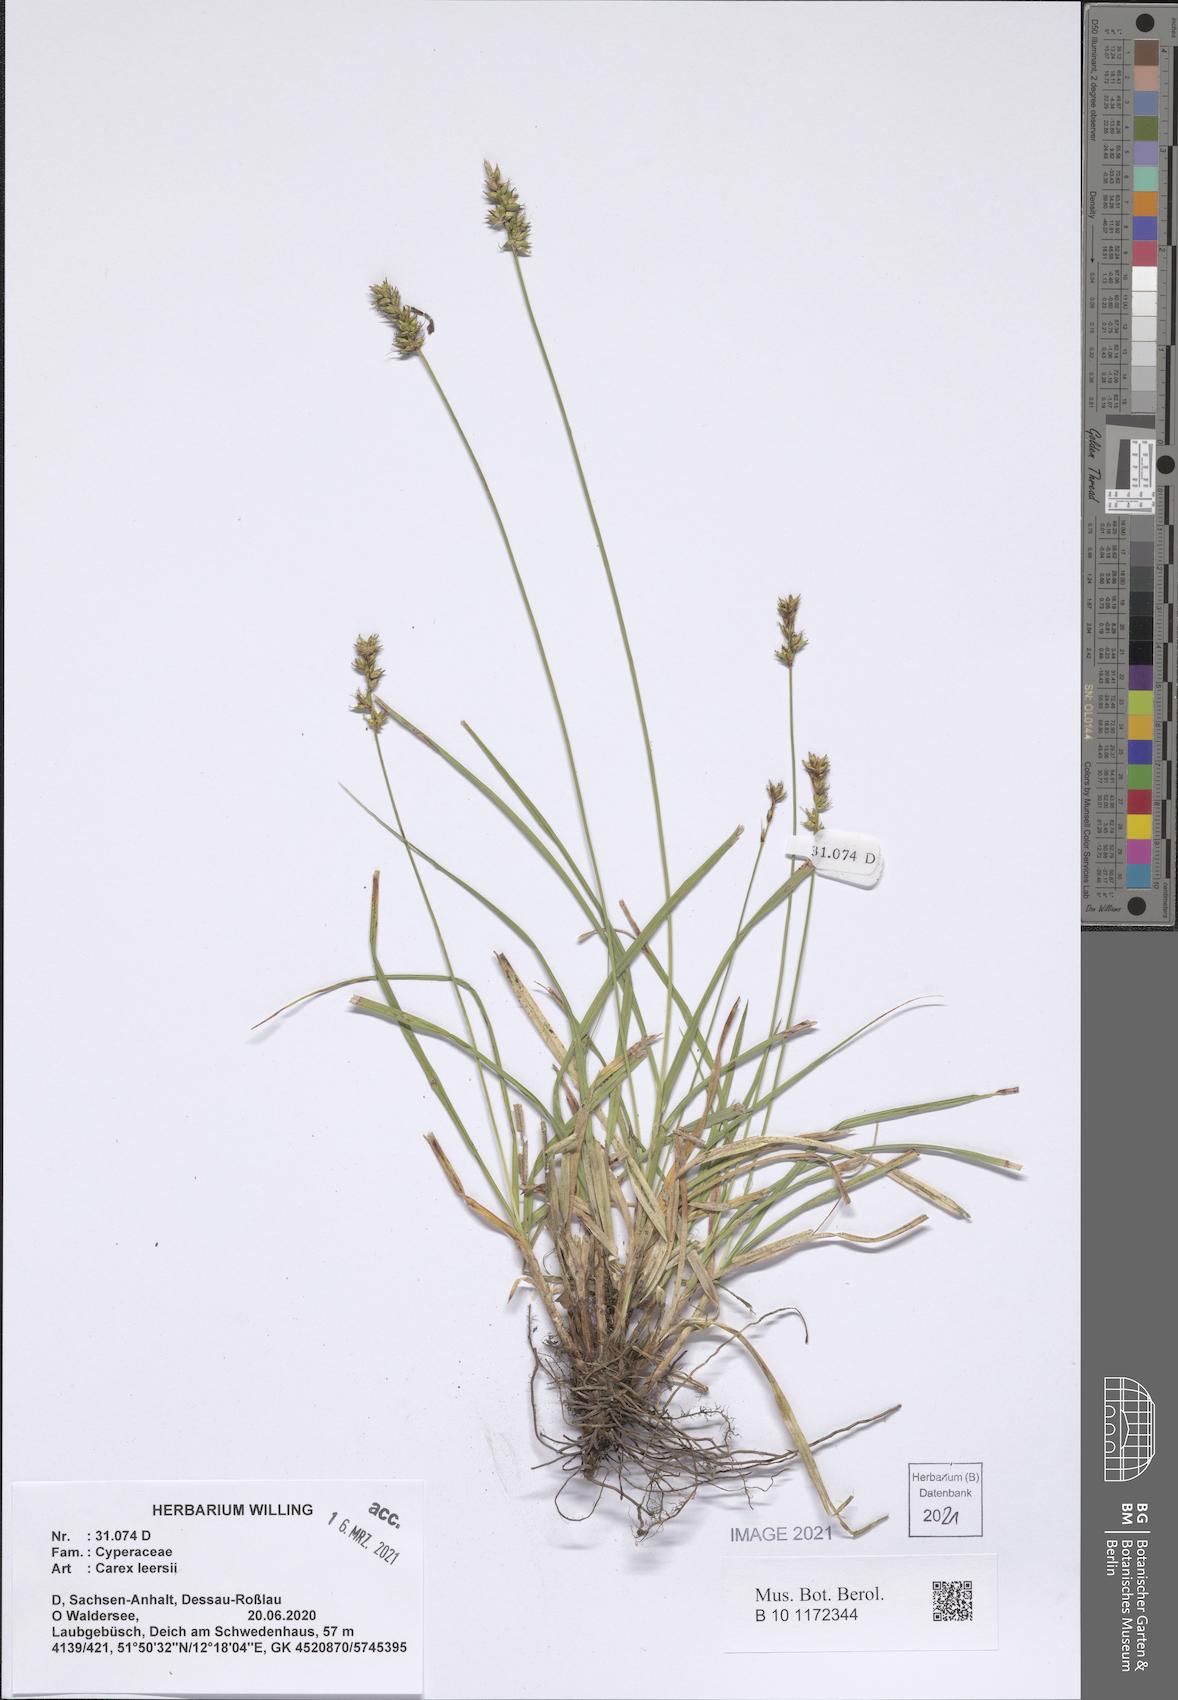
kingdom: Plantae
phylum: Tracheophyta
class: Liliopsida
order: Poales
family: Cyperaceae
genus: Carex
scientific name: Carex leersii
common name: Leers' sedge
